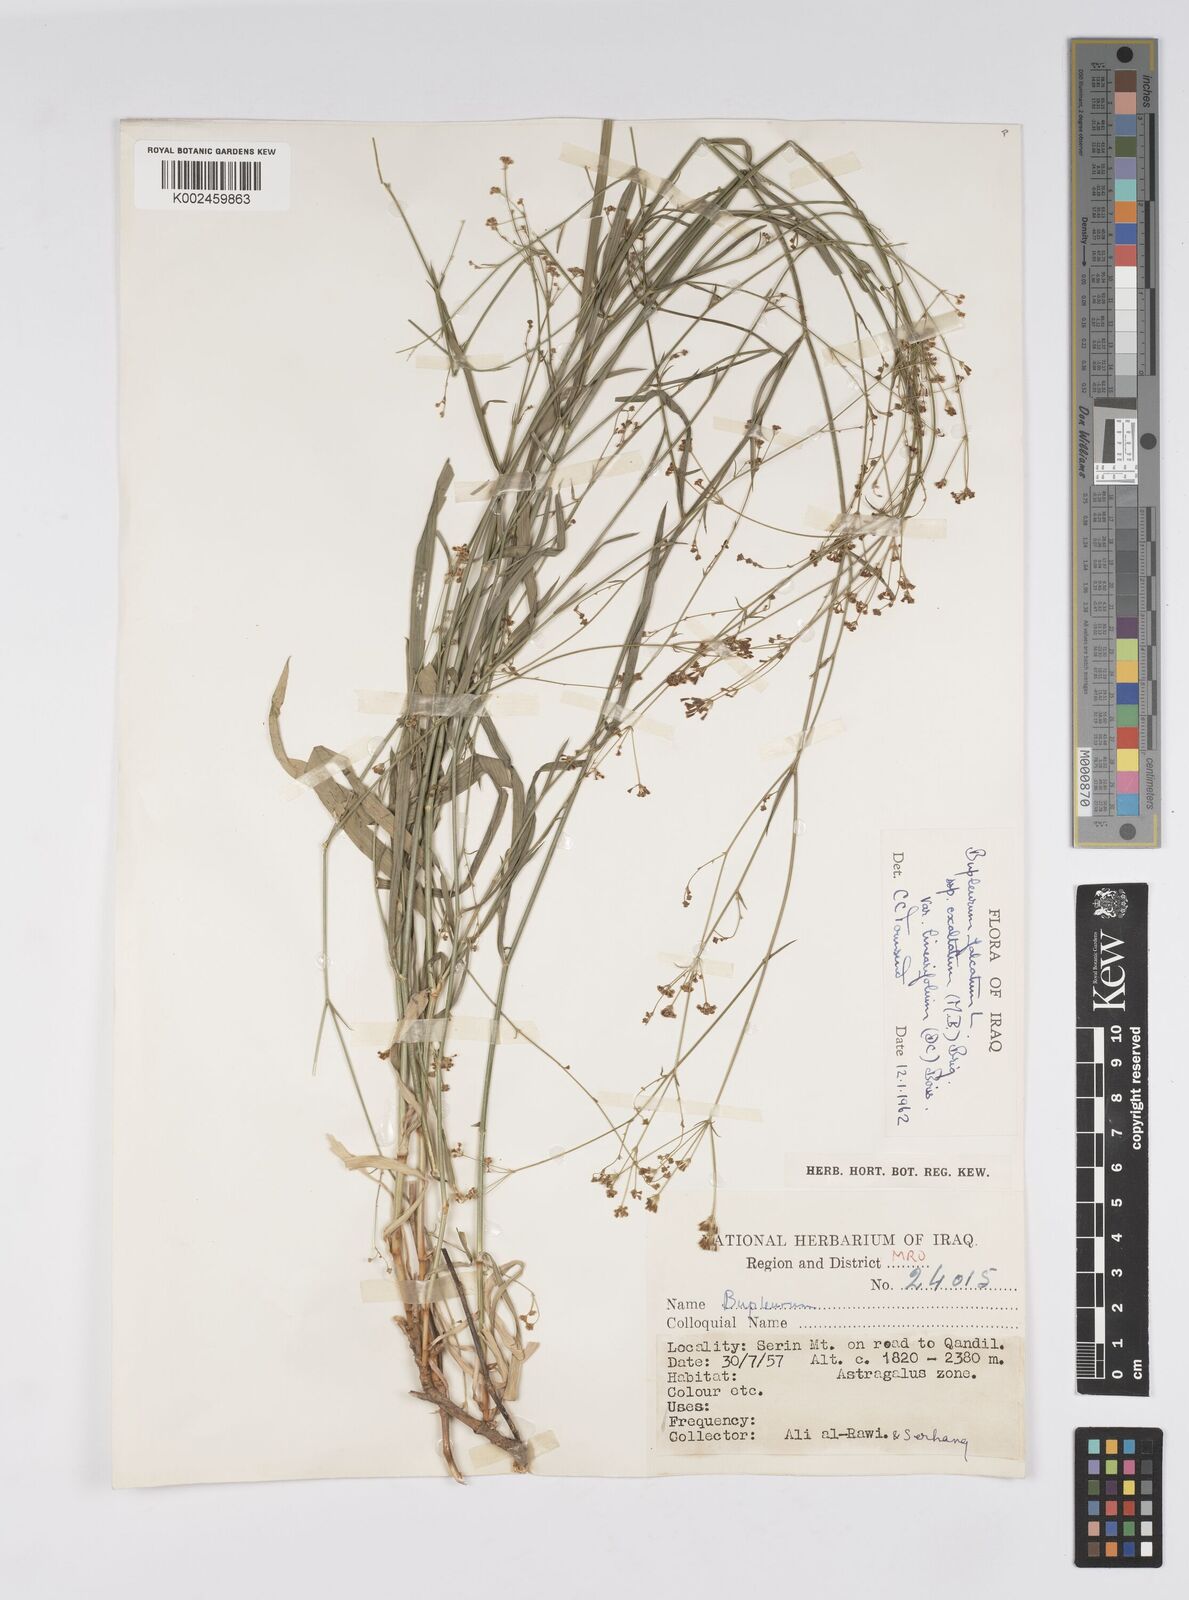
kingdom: Plantae
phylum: Tracheophyta
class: Magnoliopsida
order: Apiales
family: Apiaceae
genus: Bupleurum
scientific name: Bupleurum falcatum
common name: Sickle-leaved hare's-ear
